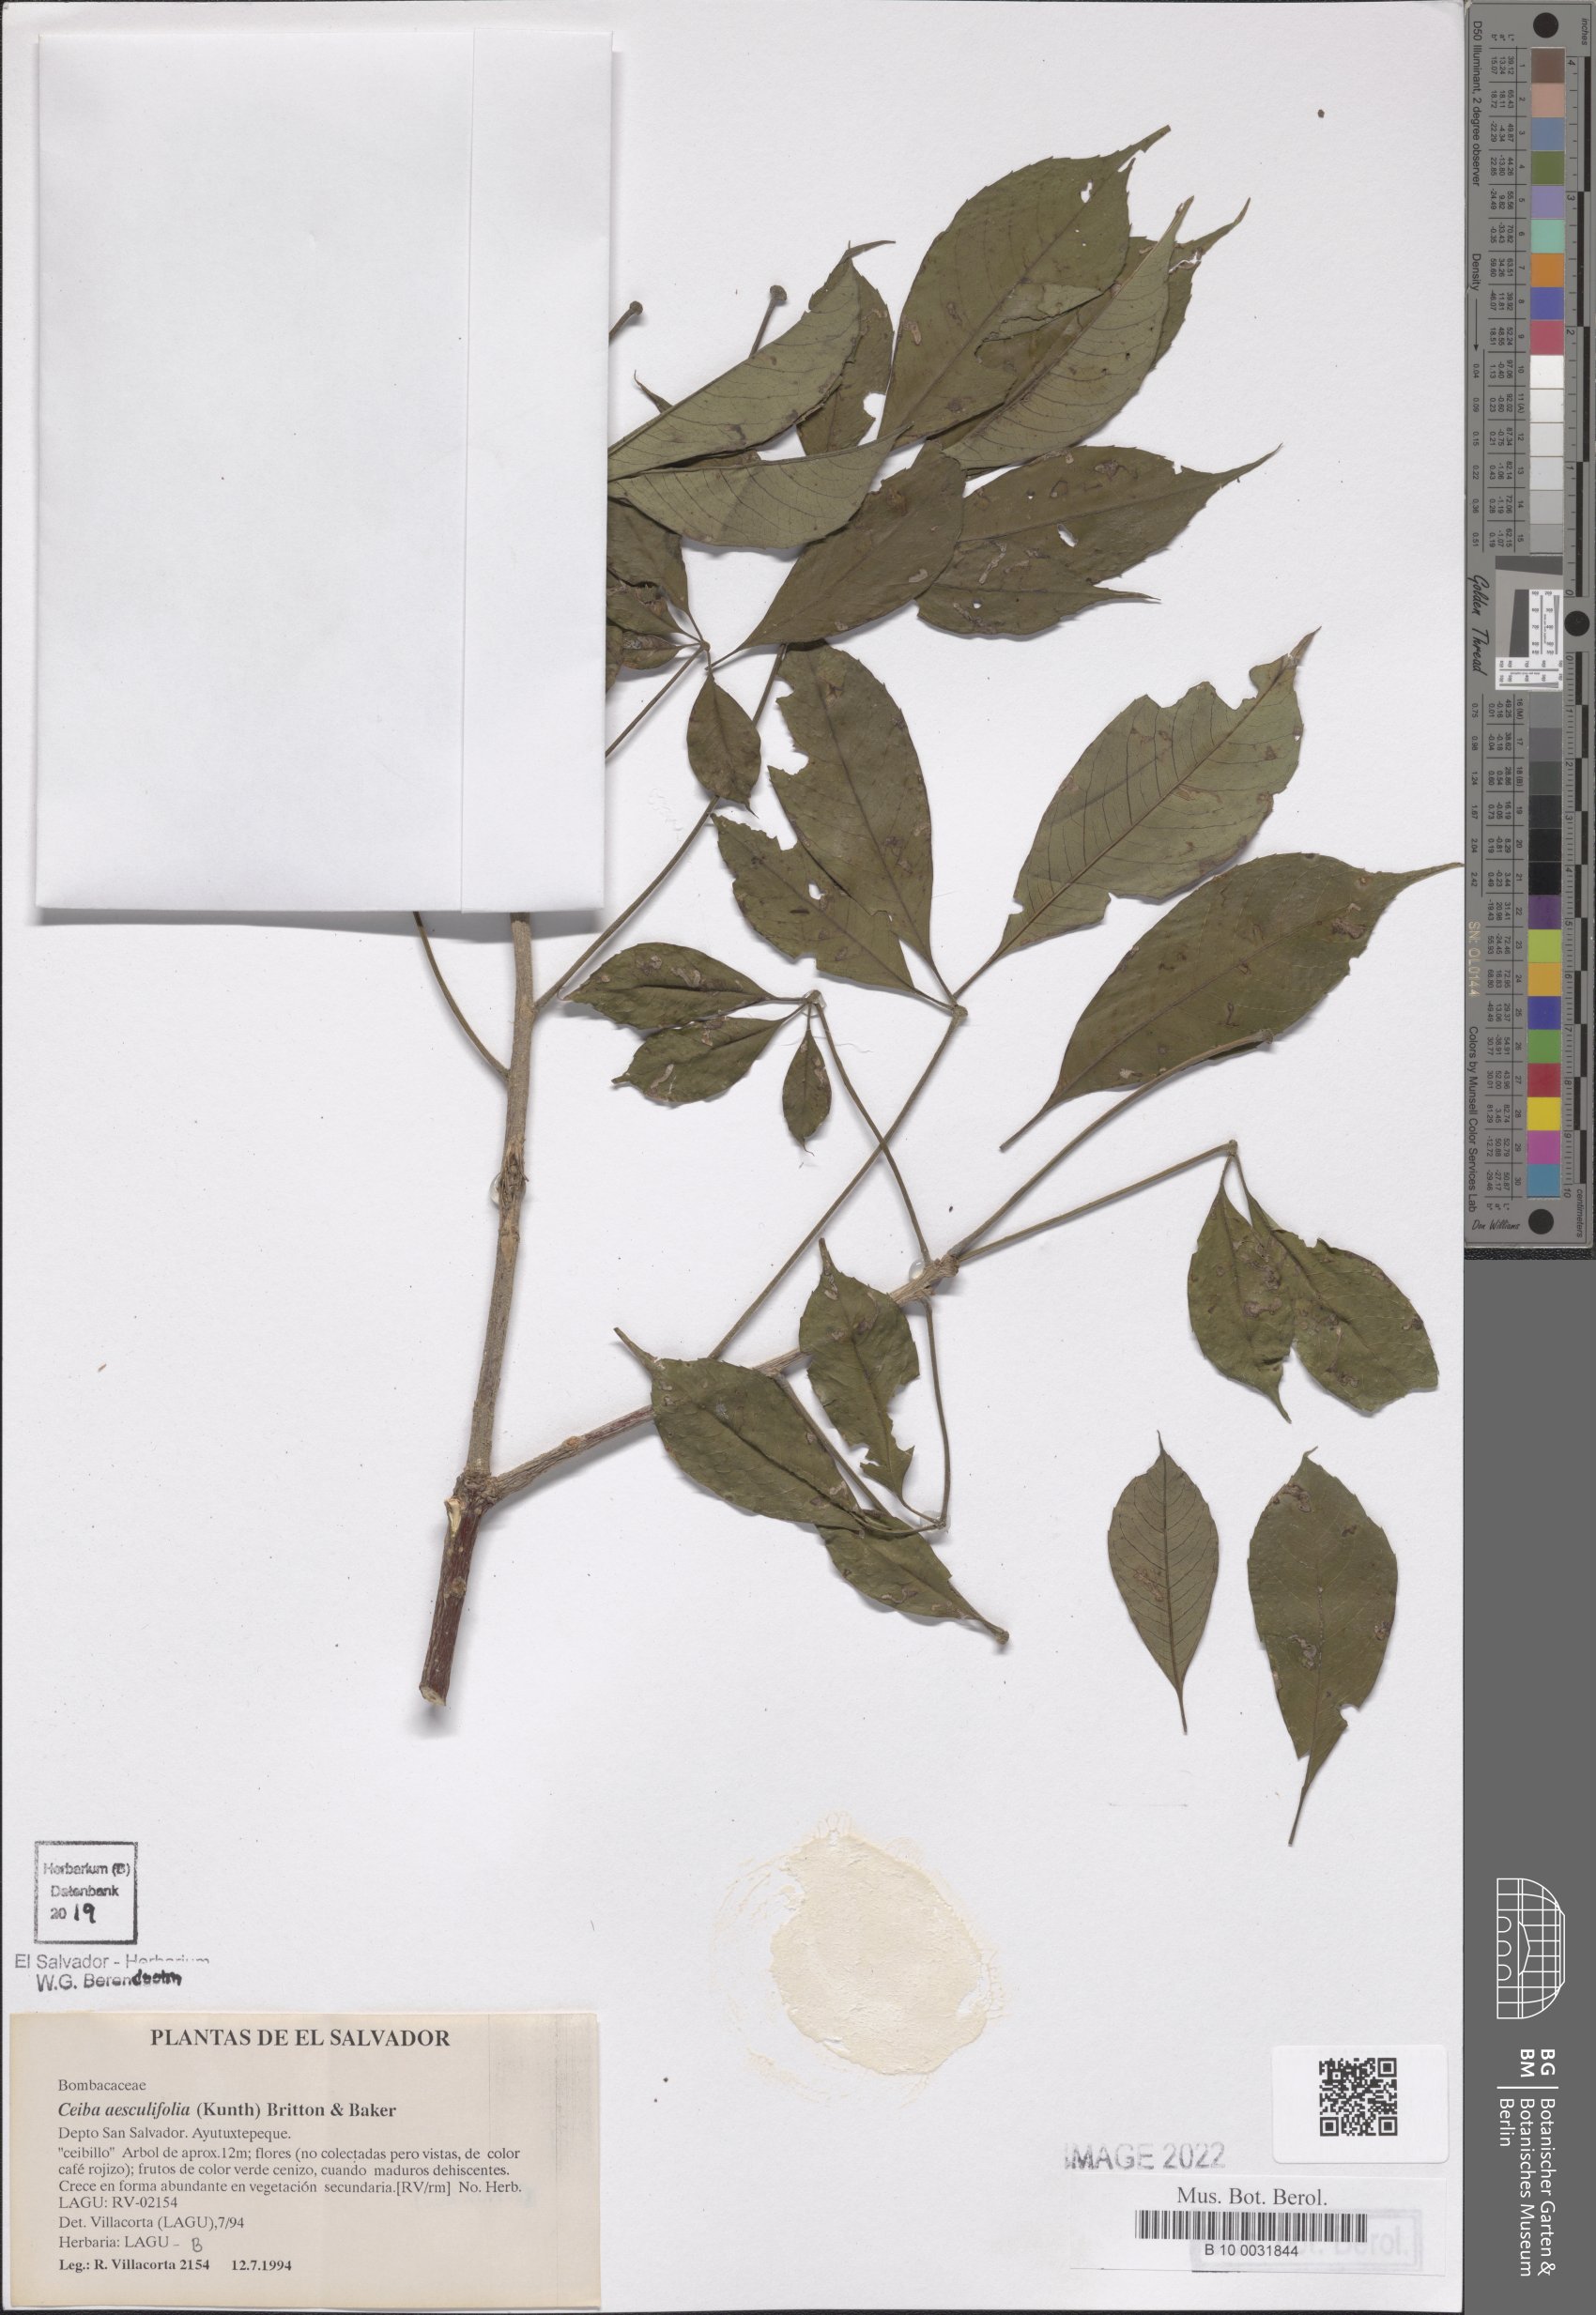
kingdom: Plantae
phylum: Tracheophyta
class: Magnoliopsida
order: Malvales
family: Malvaceae
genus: Ceiba
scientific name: Ceiba aesculifolia
